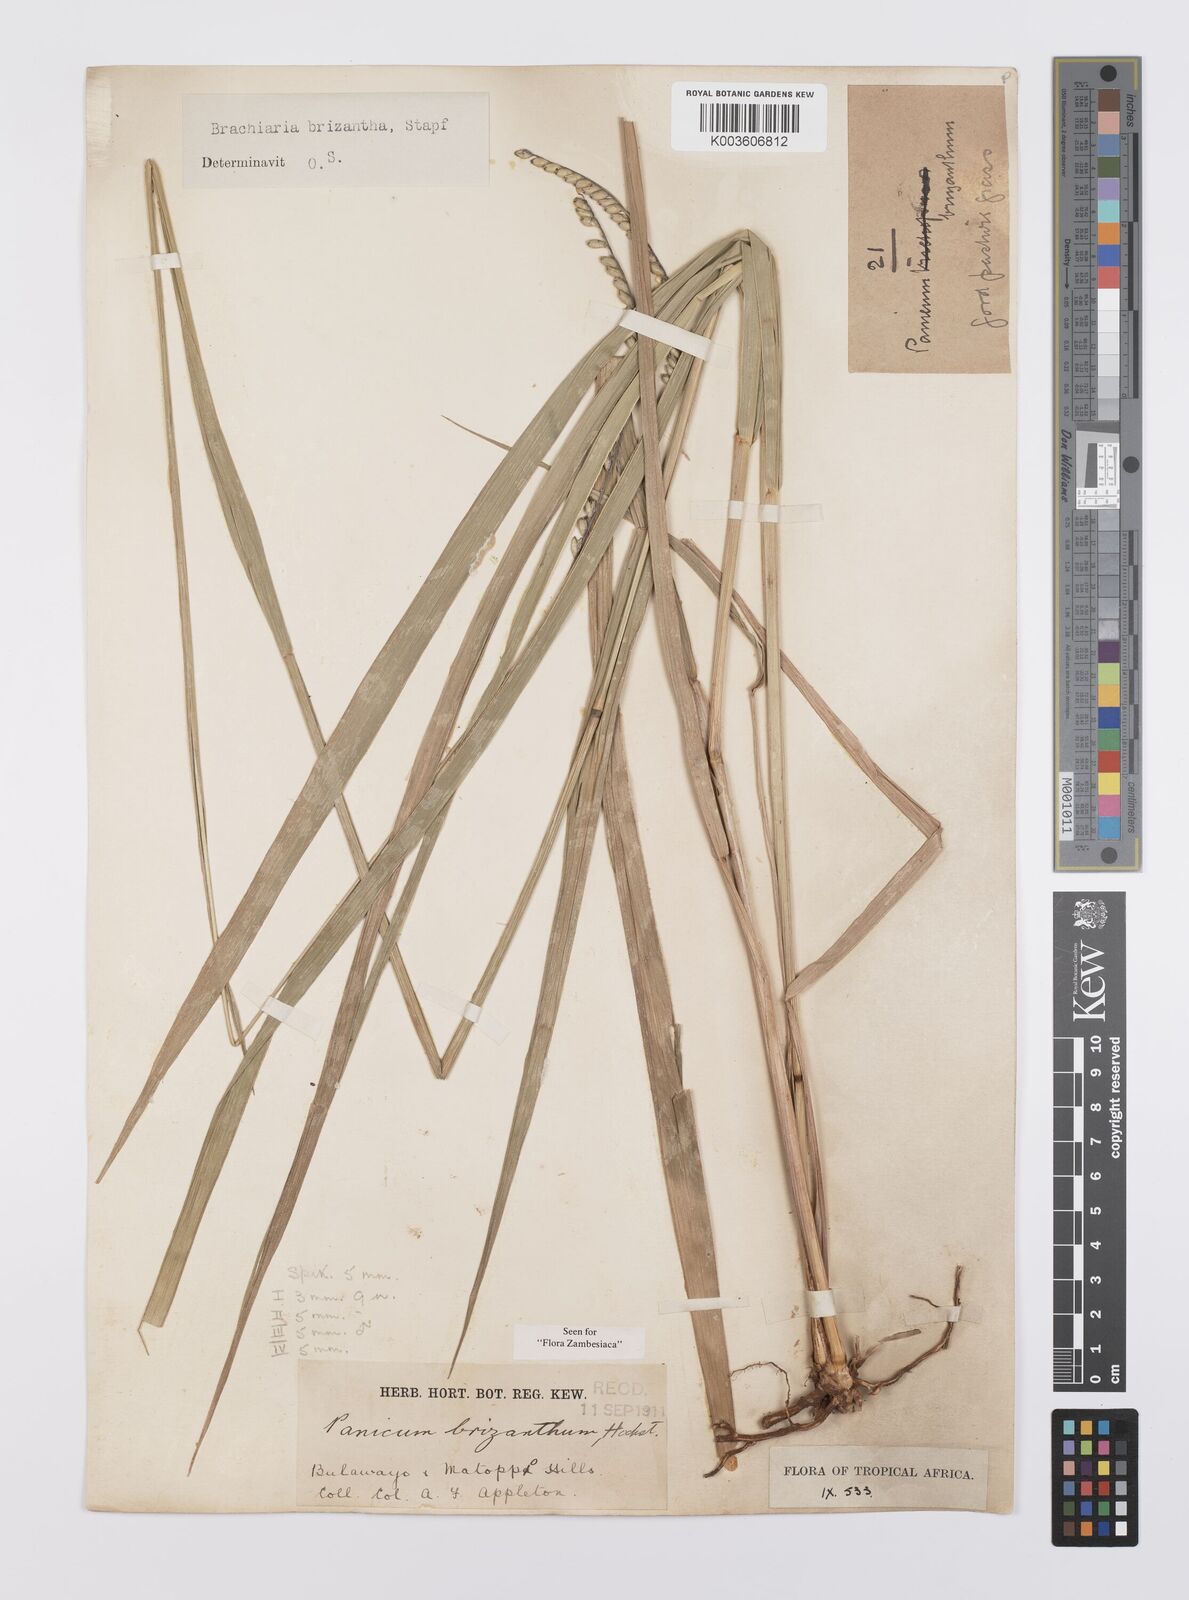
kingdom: Plantae
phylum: Tracheophyta
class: Liliopsida
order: Poales
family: Poaceae
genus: Urochloa
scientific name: Urochloa brizantha
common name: Palisade signalgrass
